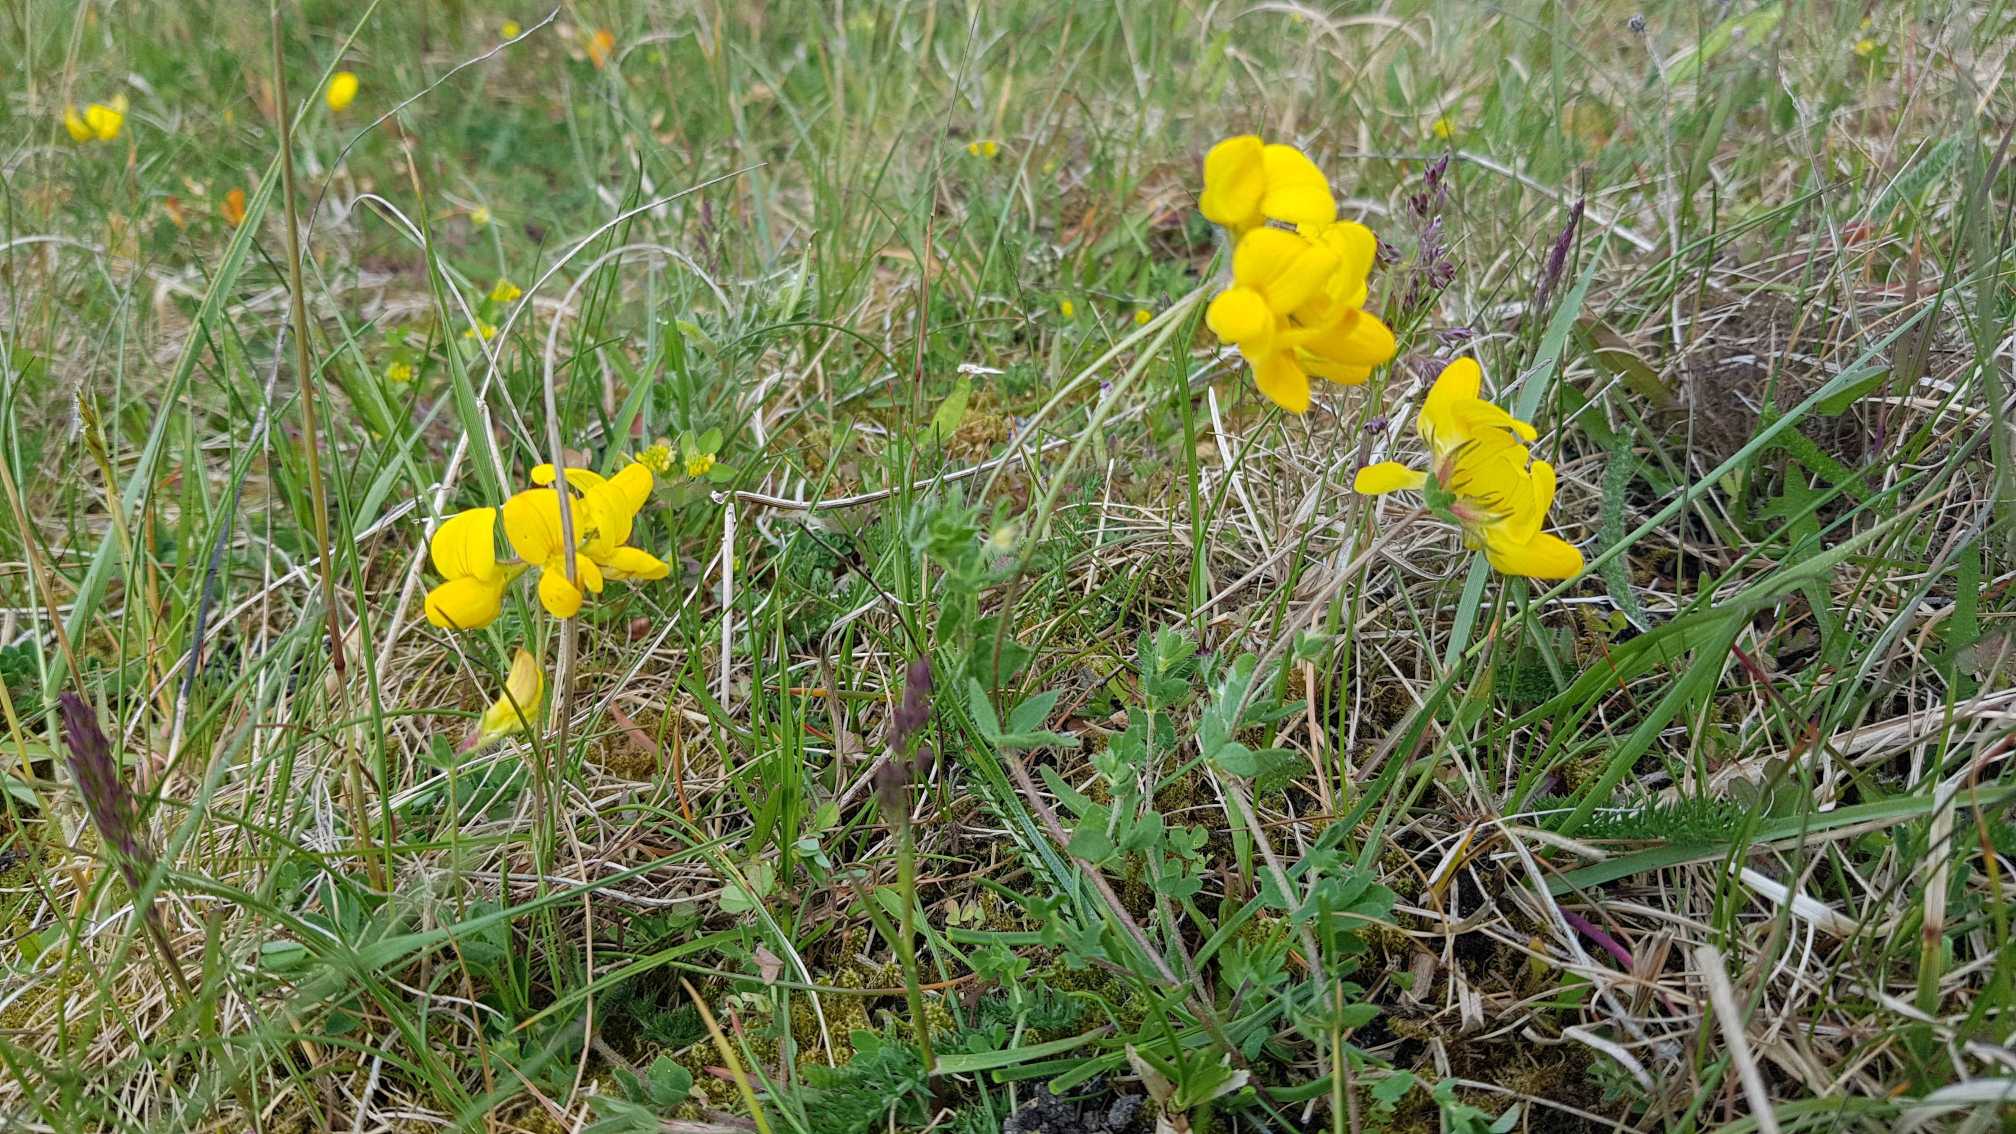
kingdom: Plantae
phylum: Tracheophyta
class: Magnoliopsida
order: Fabales
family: Fabaceae
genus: Lotus
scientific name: Lotus corniculatus
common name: Almindelig kællingetand
